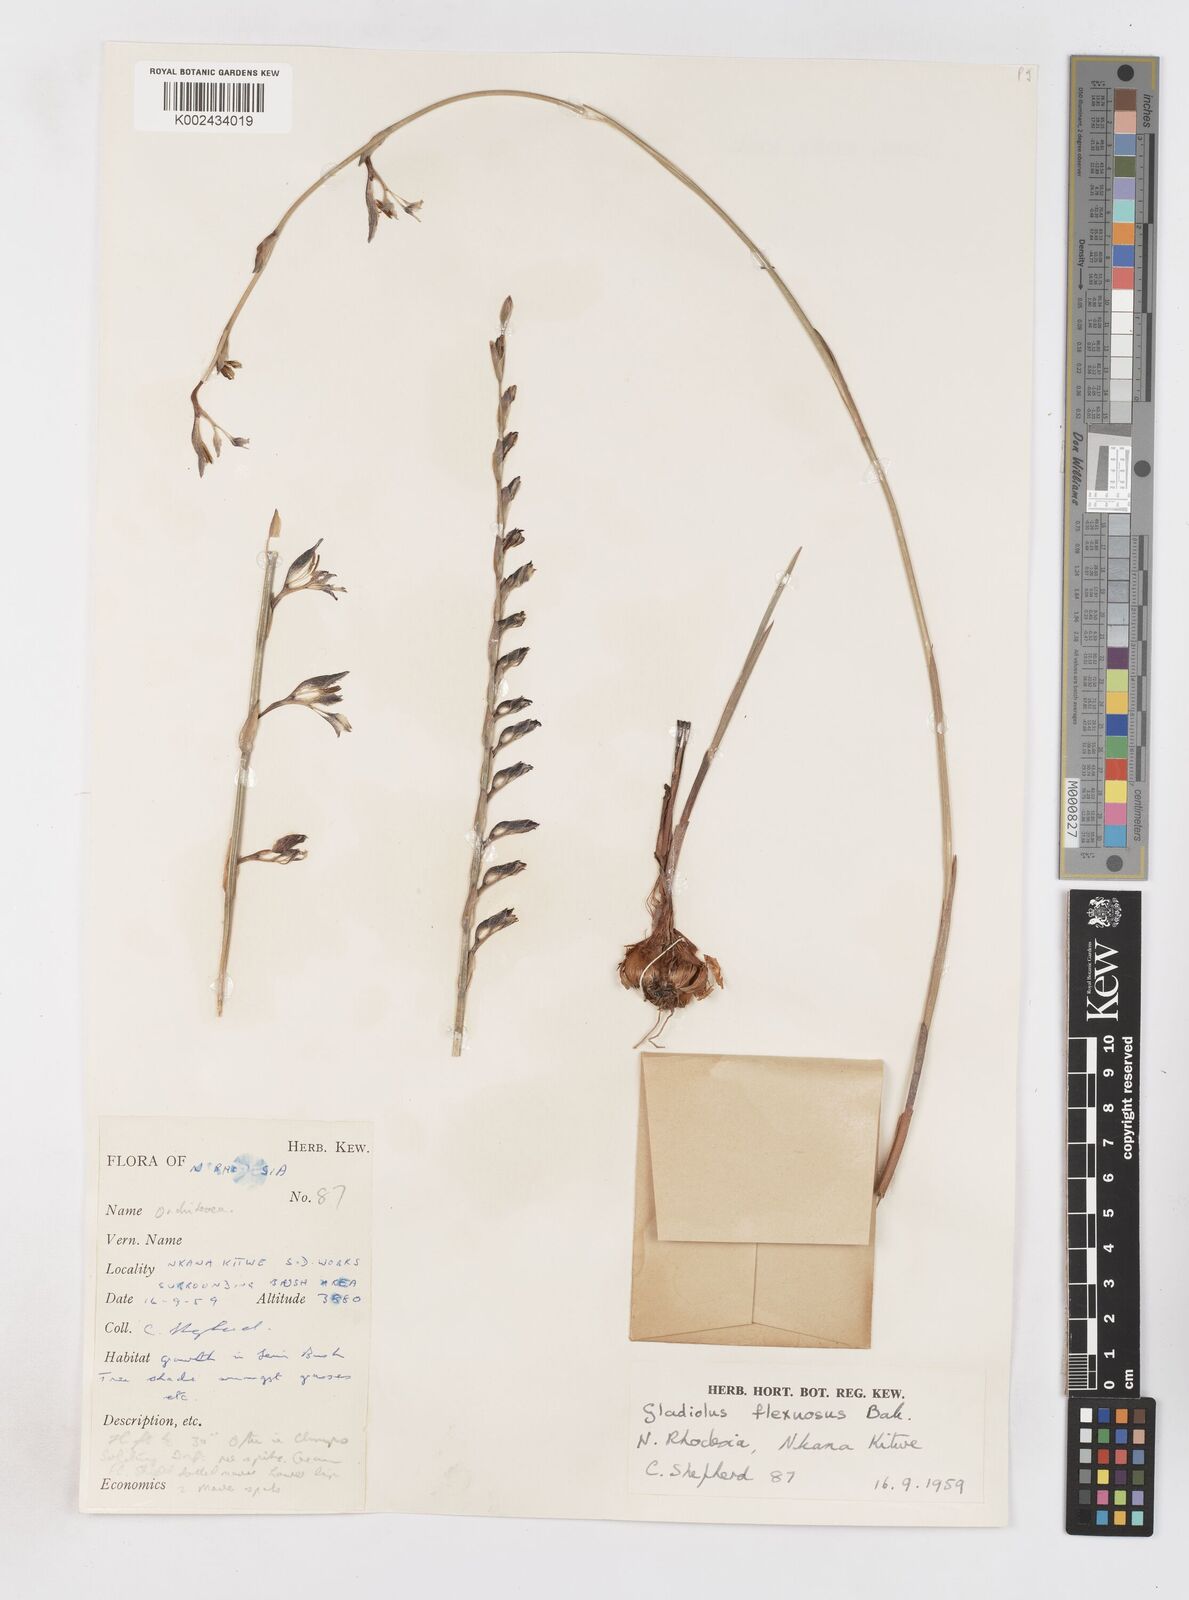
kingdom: Plantae
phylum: Tracheophyta
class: Liliopsida
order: Asparagales
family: Iridaceae
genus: Gladiolus
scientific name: Gladiolus atropurpureus
